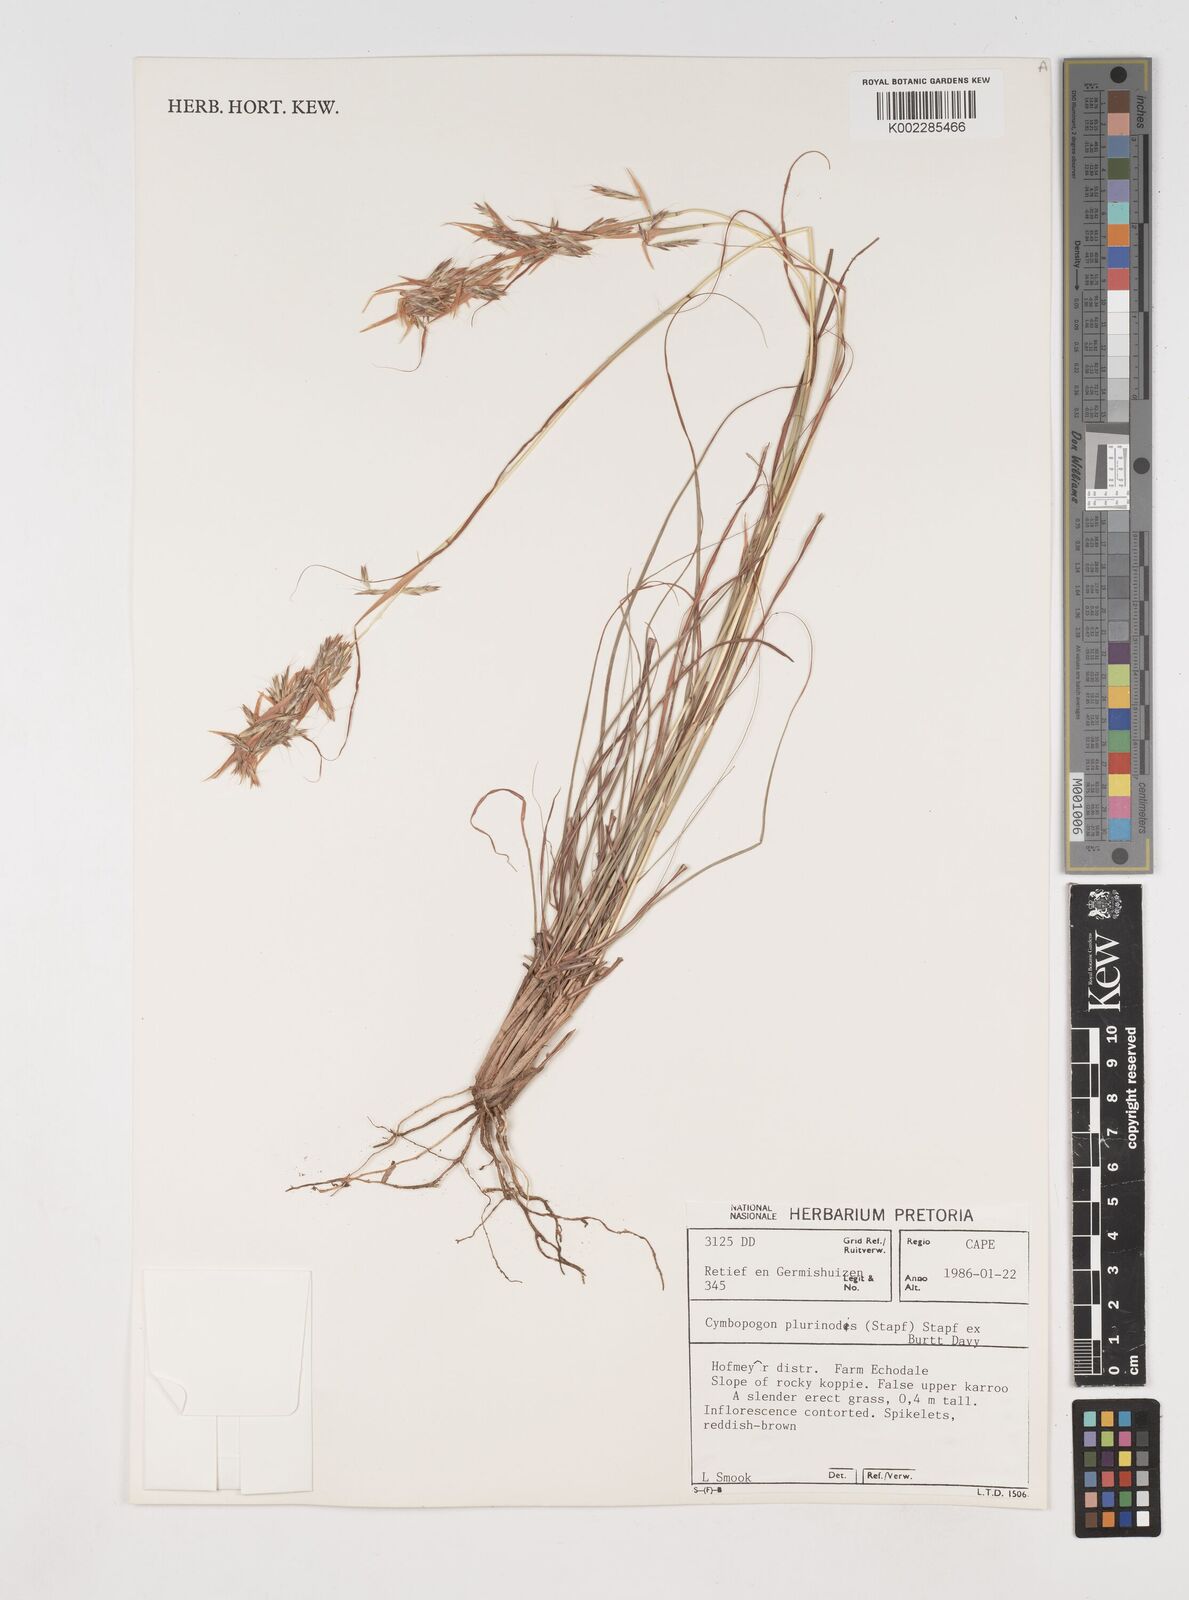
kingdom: Plantae
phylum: Tracheophyta
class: Liliopsida
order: Poales
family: Poaceae
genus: Cymbopogon
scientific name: Cymbopogon pospischilii
